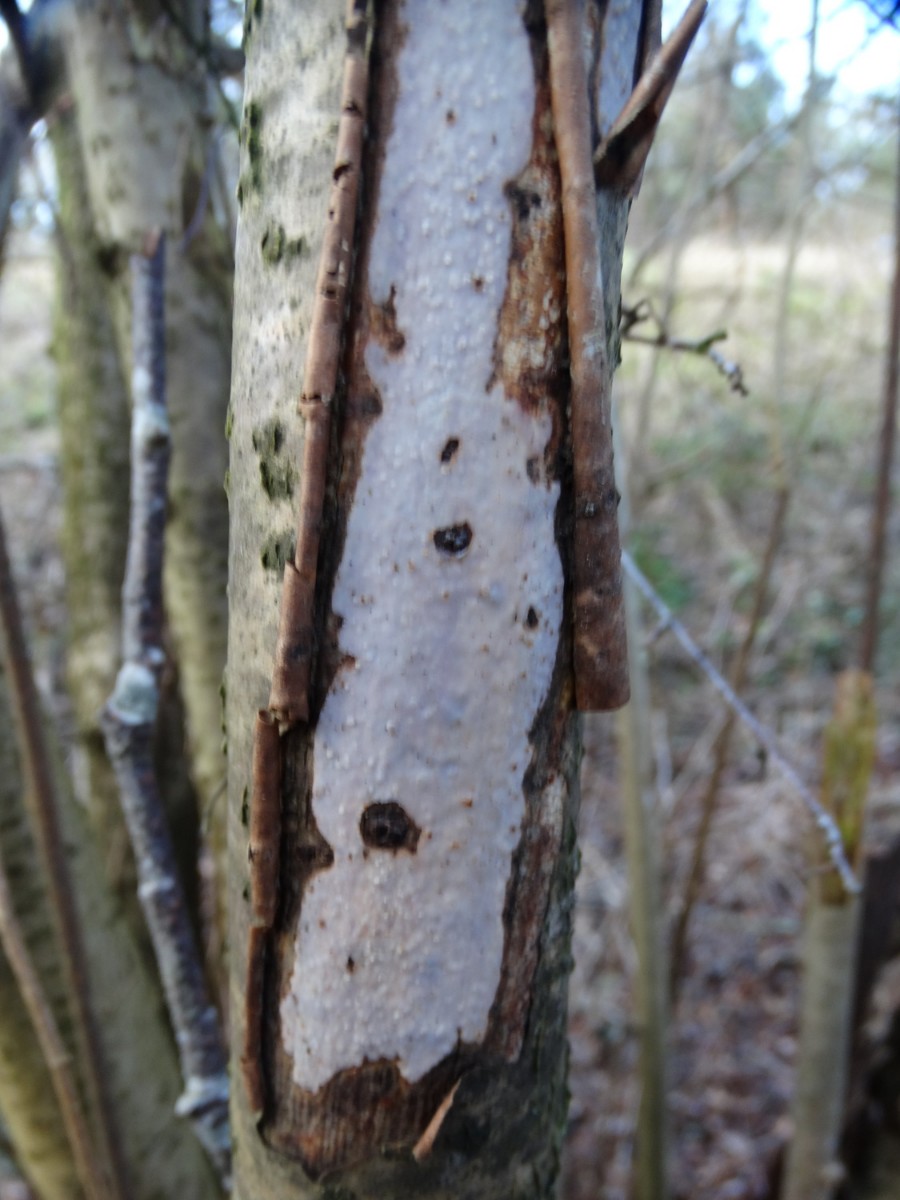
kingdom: Fungi
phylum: Basidiomycota
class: Agaricomycetes
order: Corticiales
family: Vuilleminiaceae
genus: Vuilleminia
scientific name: Vuilleminia coryli
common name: hassel-barksprænger
